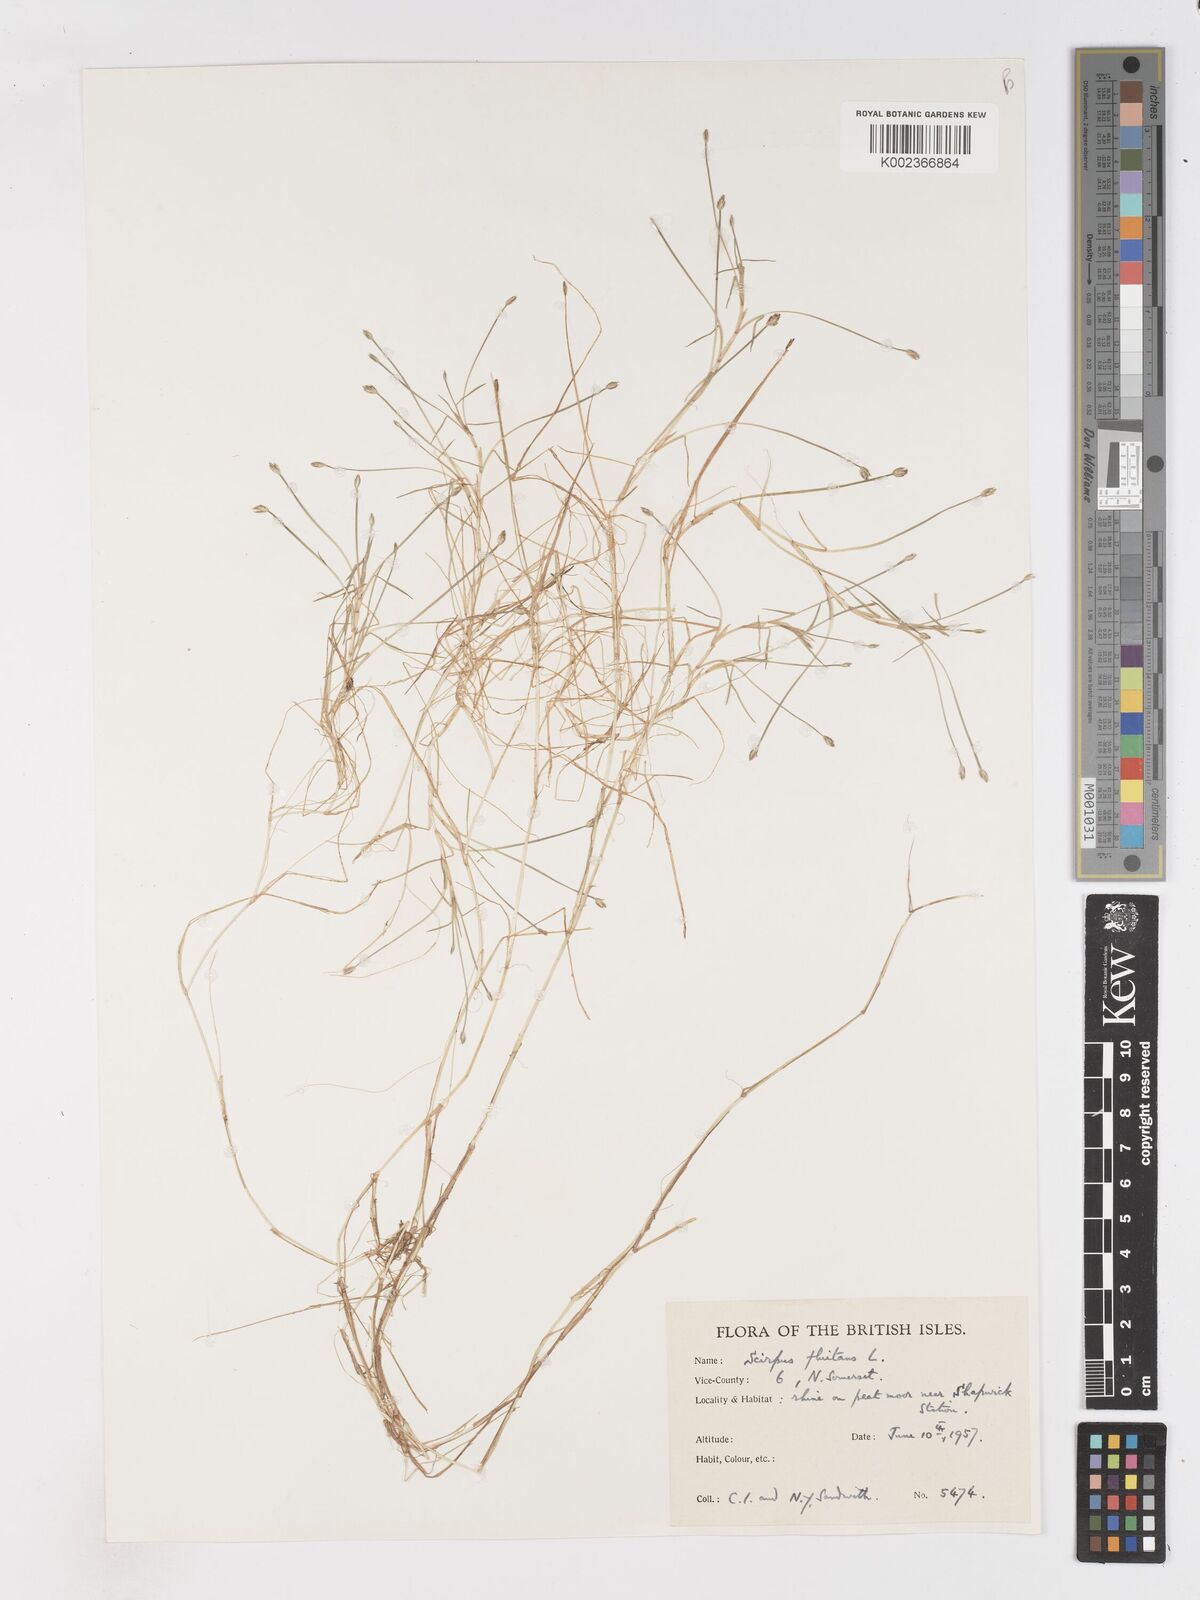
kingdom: Plantae
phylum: Tracheophyta
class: Liliopsida
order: Poales
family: Cyperaceae
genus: Isolepis
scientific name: Isolepis fluitans
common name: Floating club-rush
